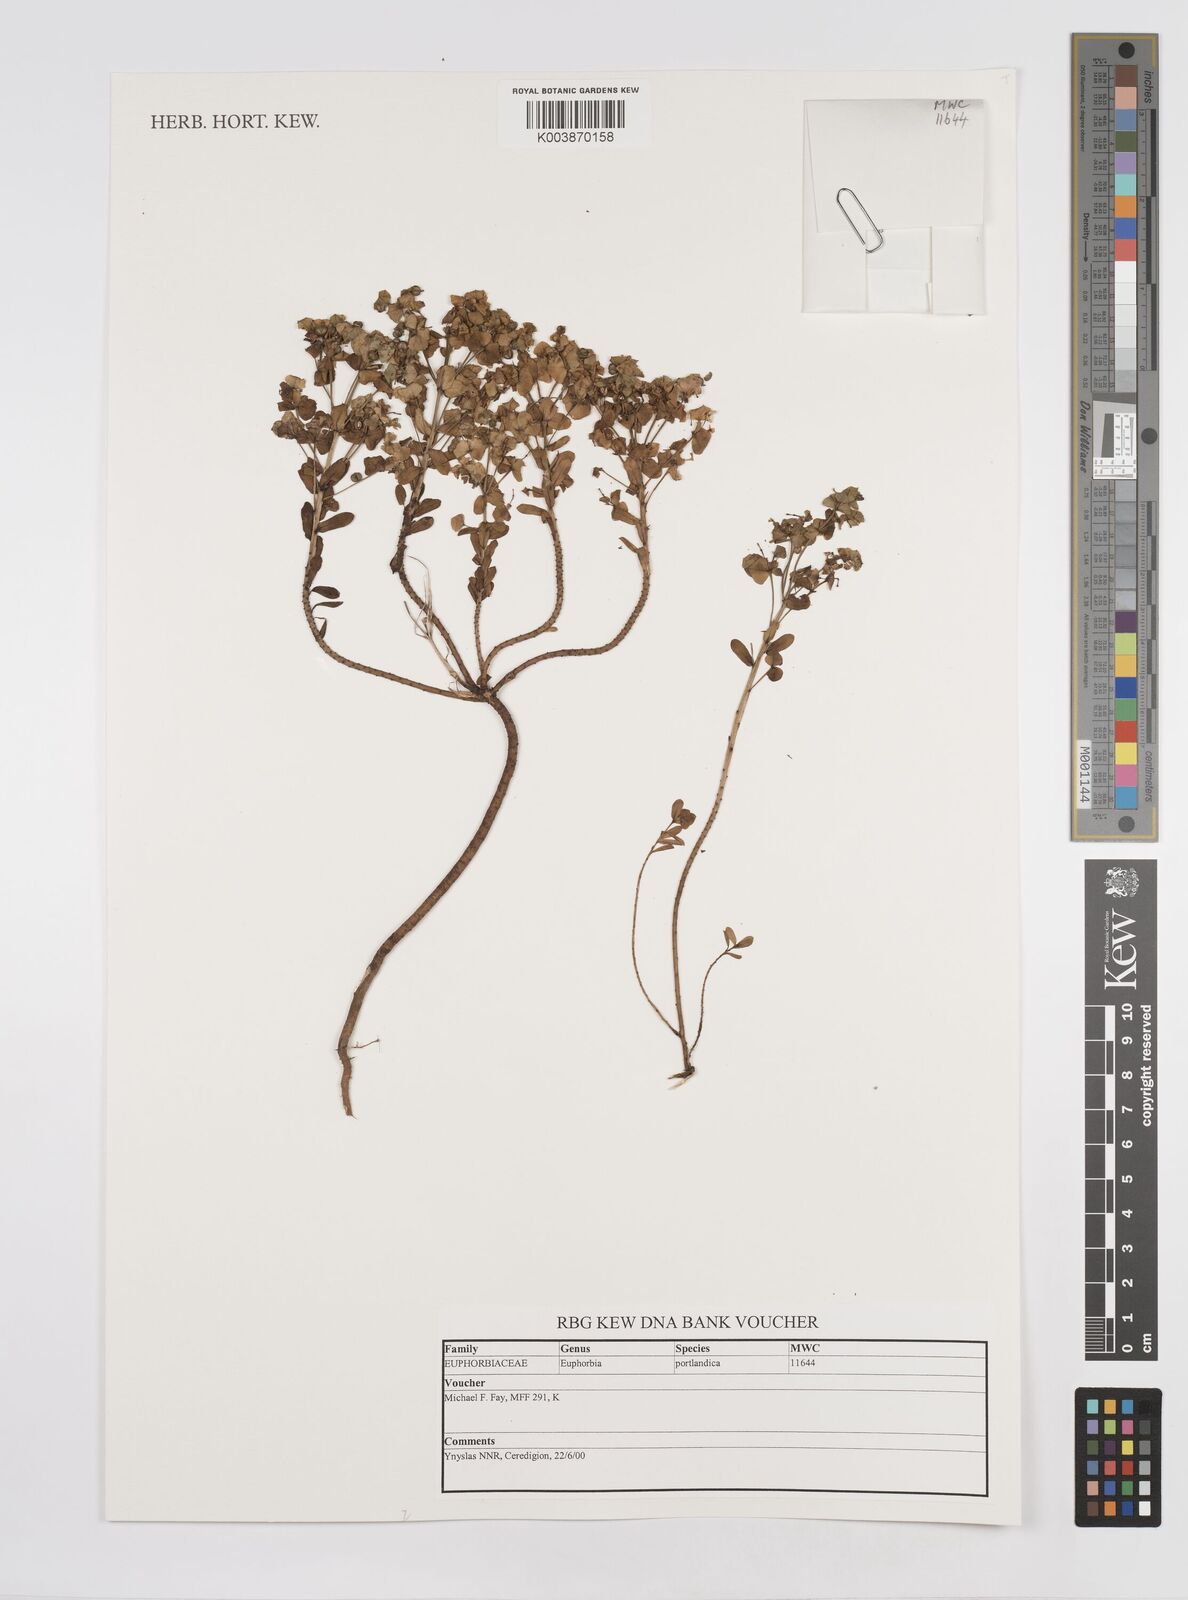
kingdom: Plantae
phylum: Tracheophyta
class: Magnoliopsida
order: Malpighiales
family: Euphorbiaceae
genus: Euphorbia
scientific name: Euphorbia portlandica
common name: Portland spurge
